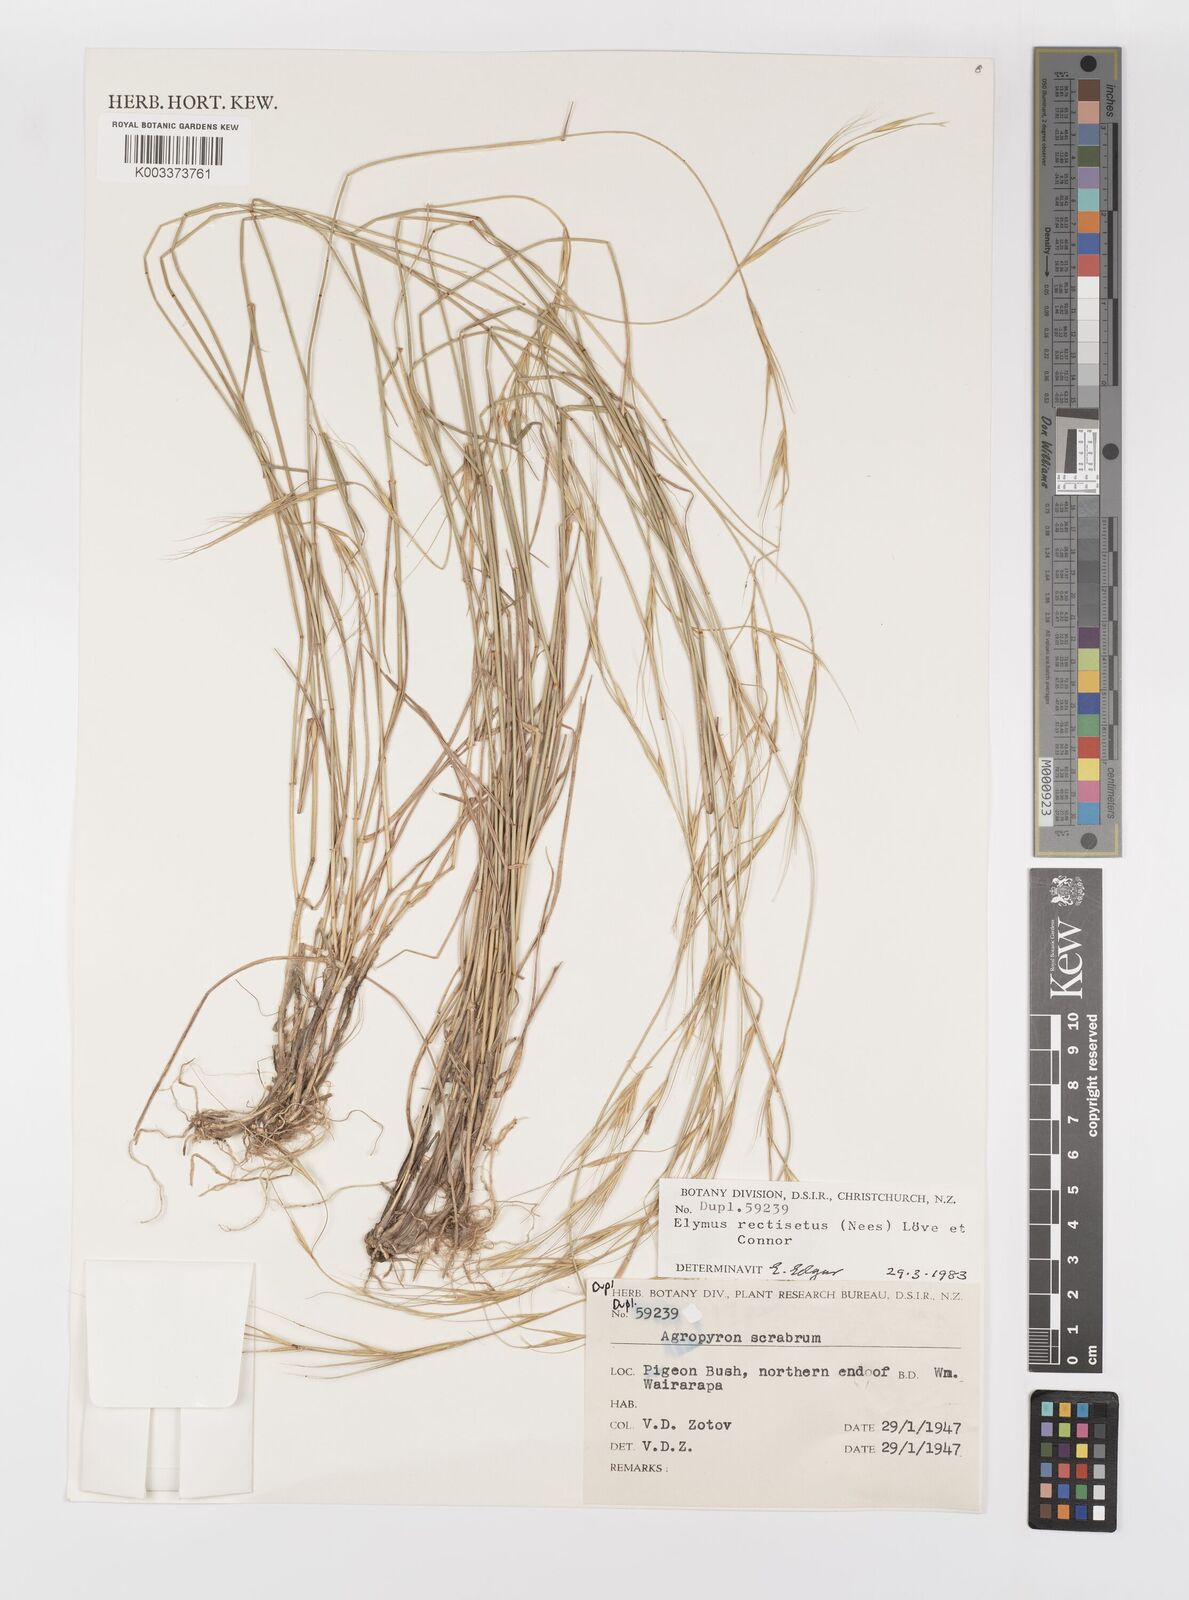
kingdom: Plantae
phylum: Tracheophyta
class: Liliopsida
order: Poales
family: Poaceae
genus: Anthosachne
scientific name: Anthosachne scabra
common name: Common wheatgrass
